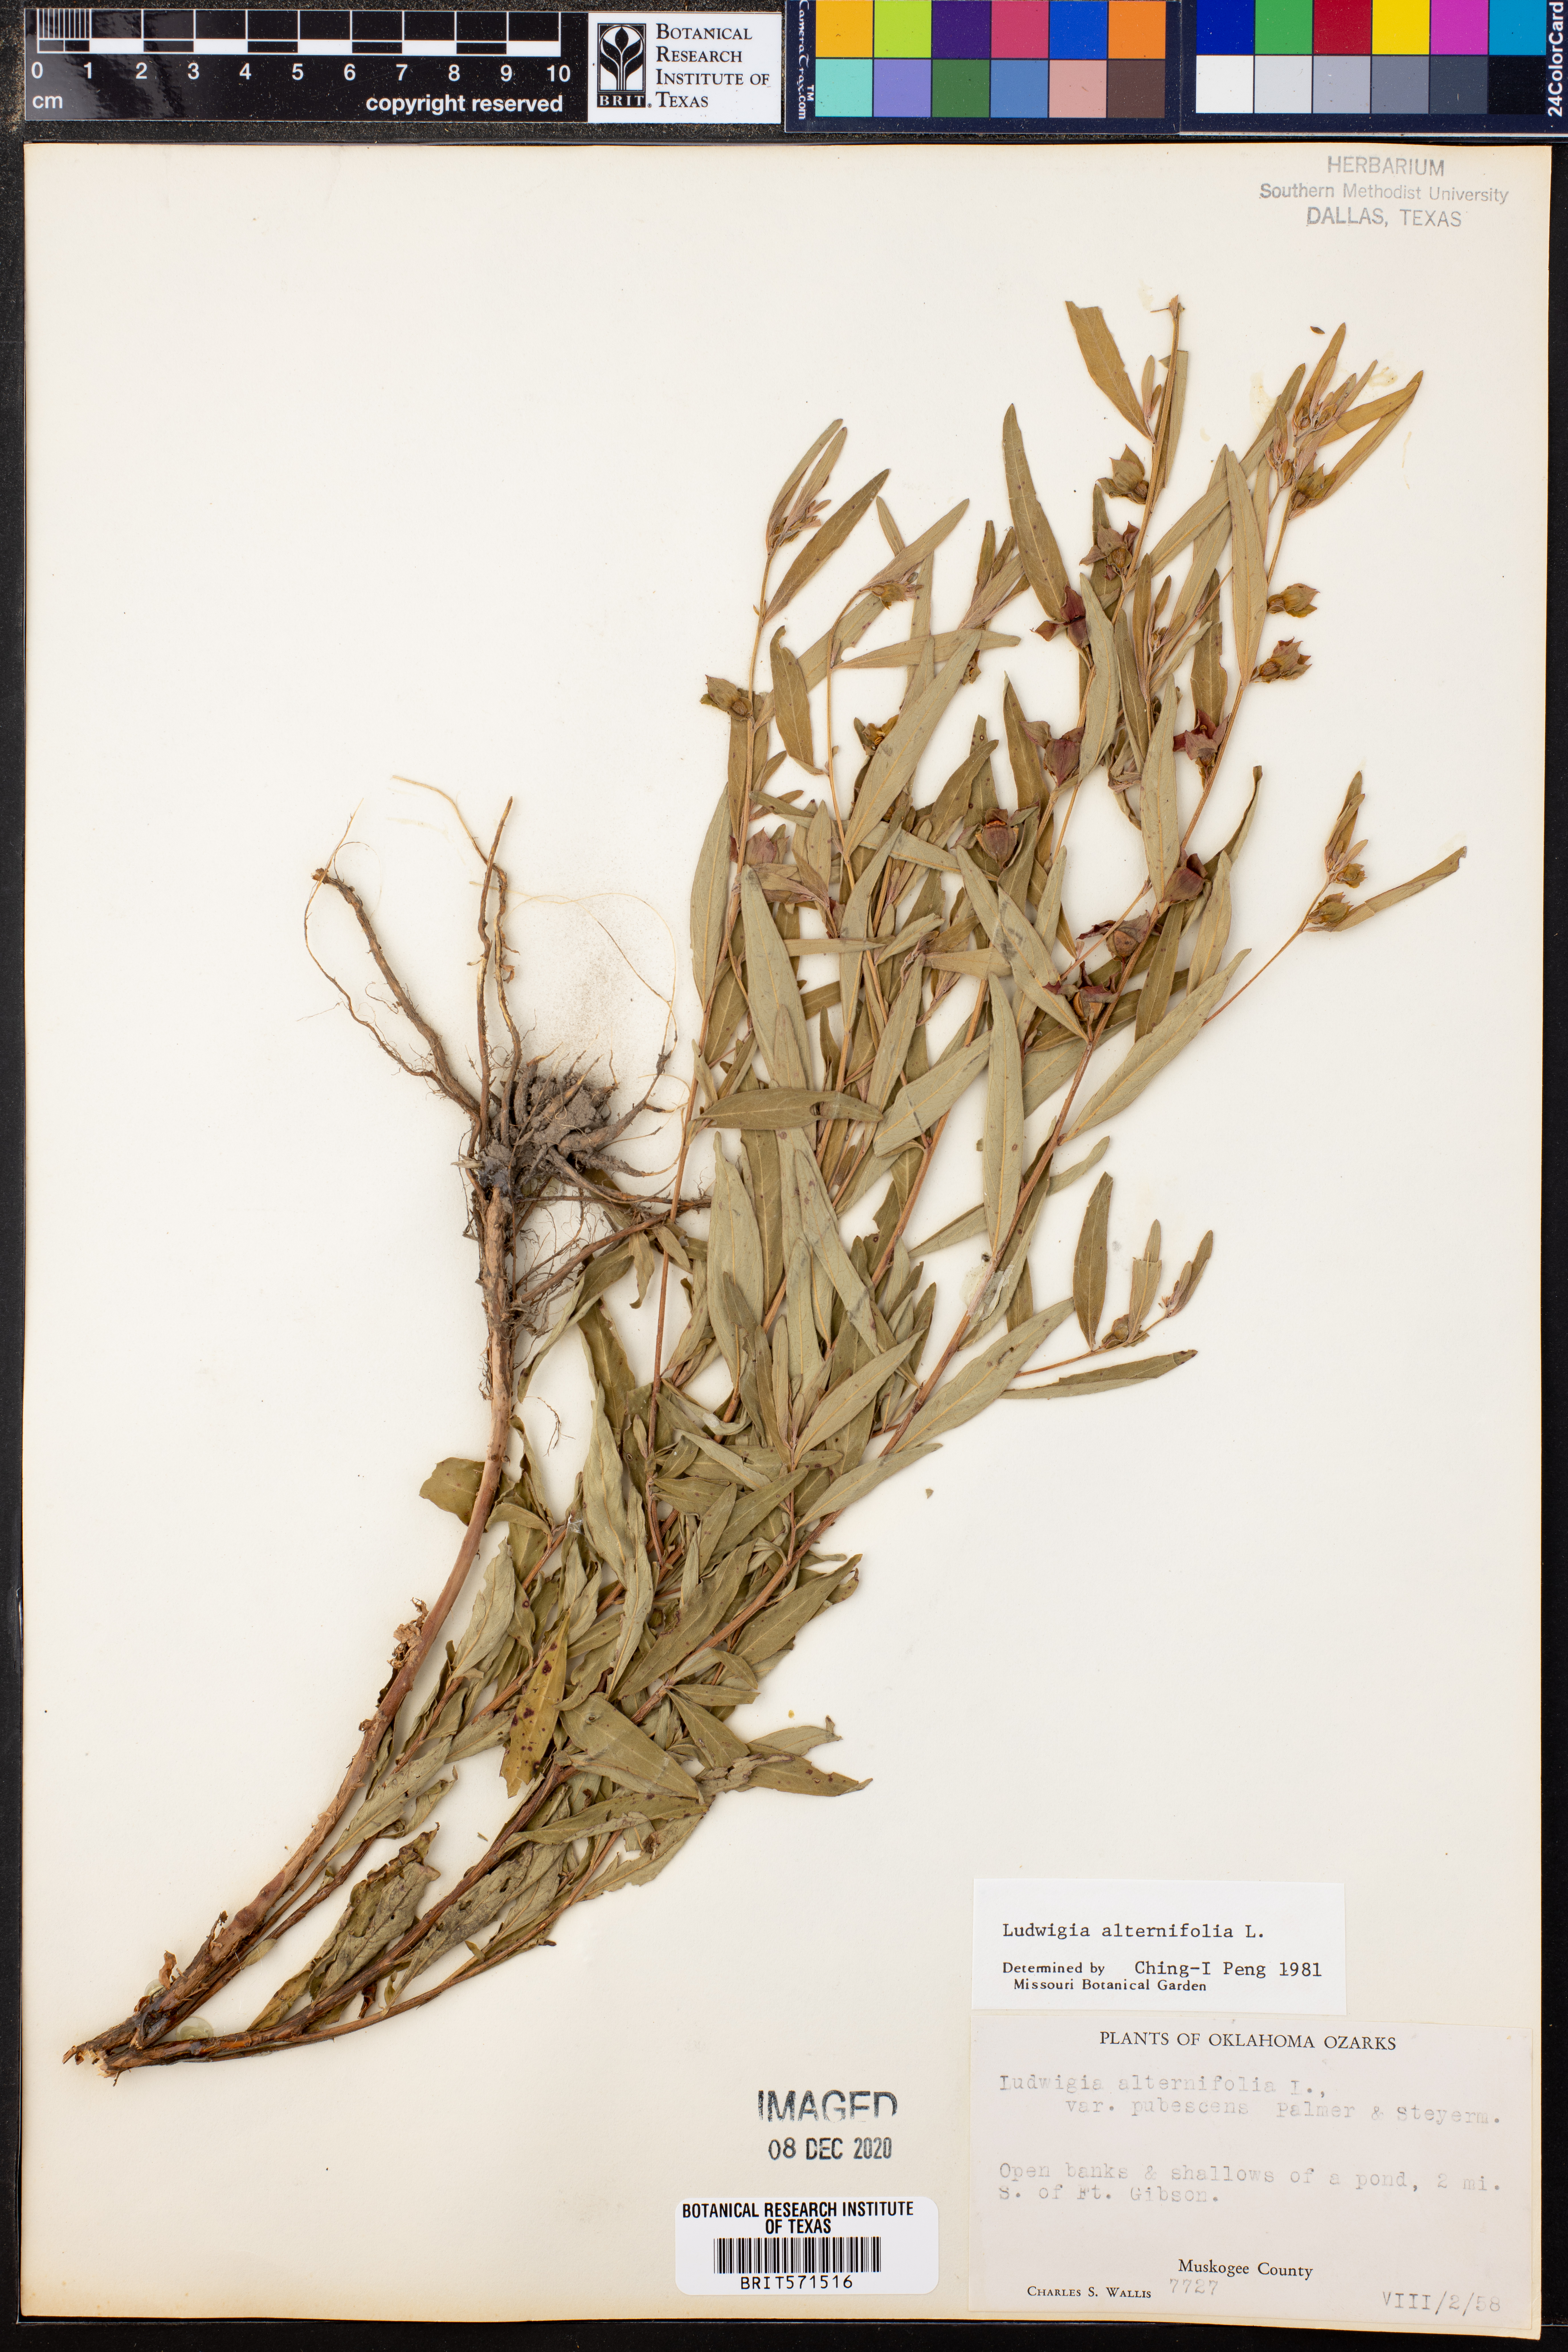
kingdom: Plantae
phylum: Tracheophyta
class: Magnoliopsida
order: Myrtales
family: Onagraceae
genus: Ludwigia
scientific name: Ludwigia alternifolia
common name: Rattlebox
